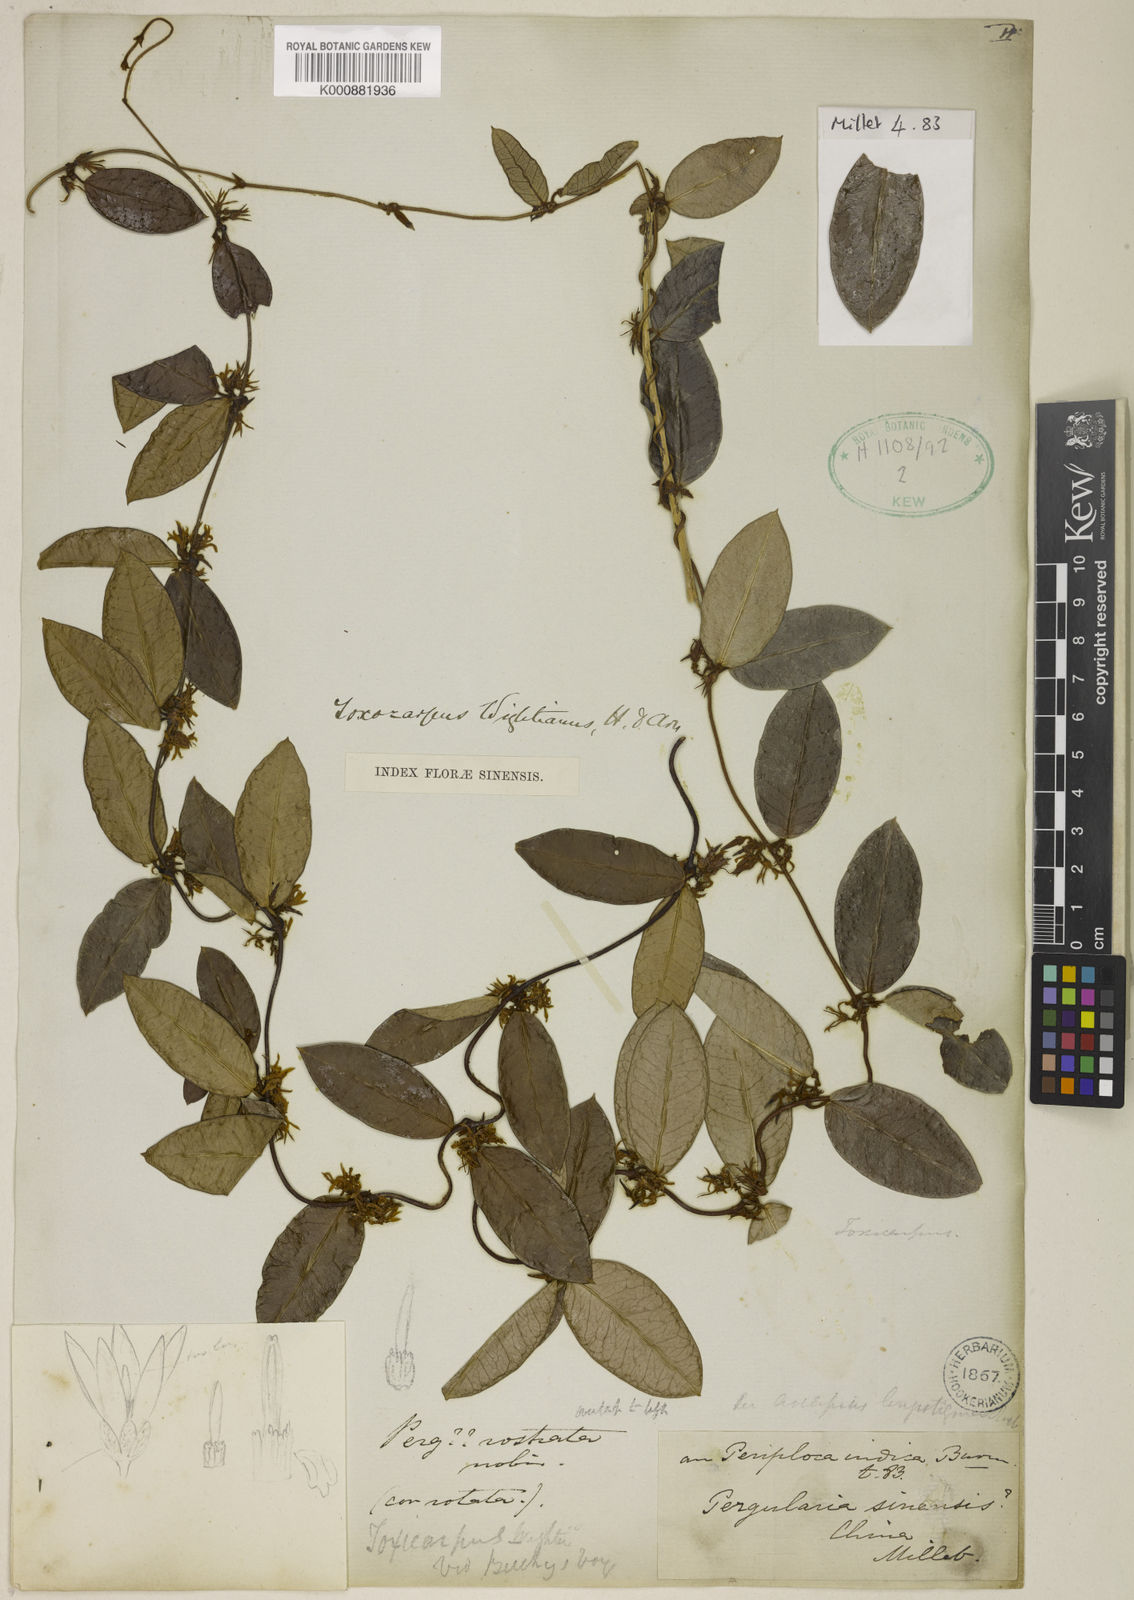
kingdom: Plantae
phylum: Tracheophyta
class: Magnoliopsida
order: Gentianales
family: Apocynaceae
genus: Toxocarpus
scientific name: Toxocarpus wightianus
